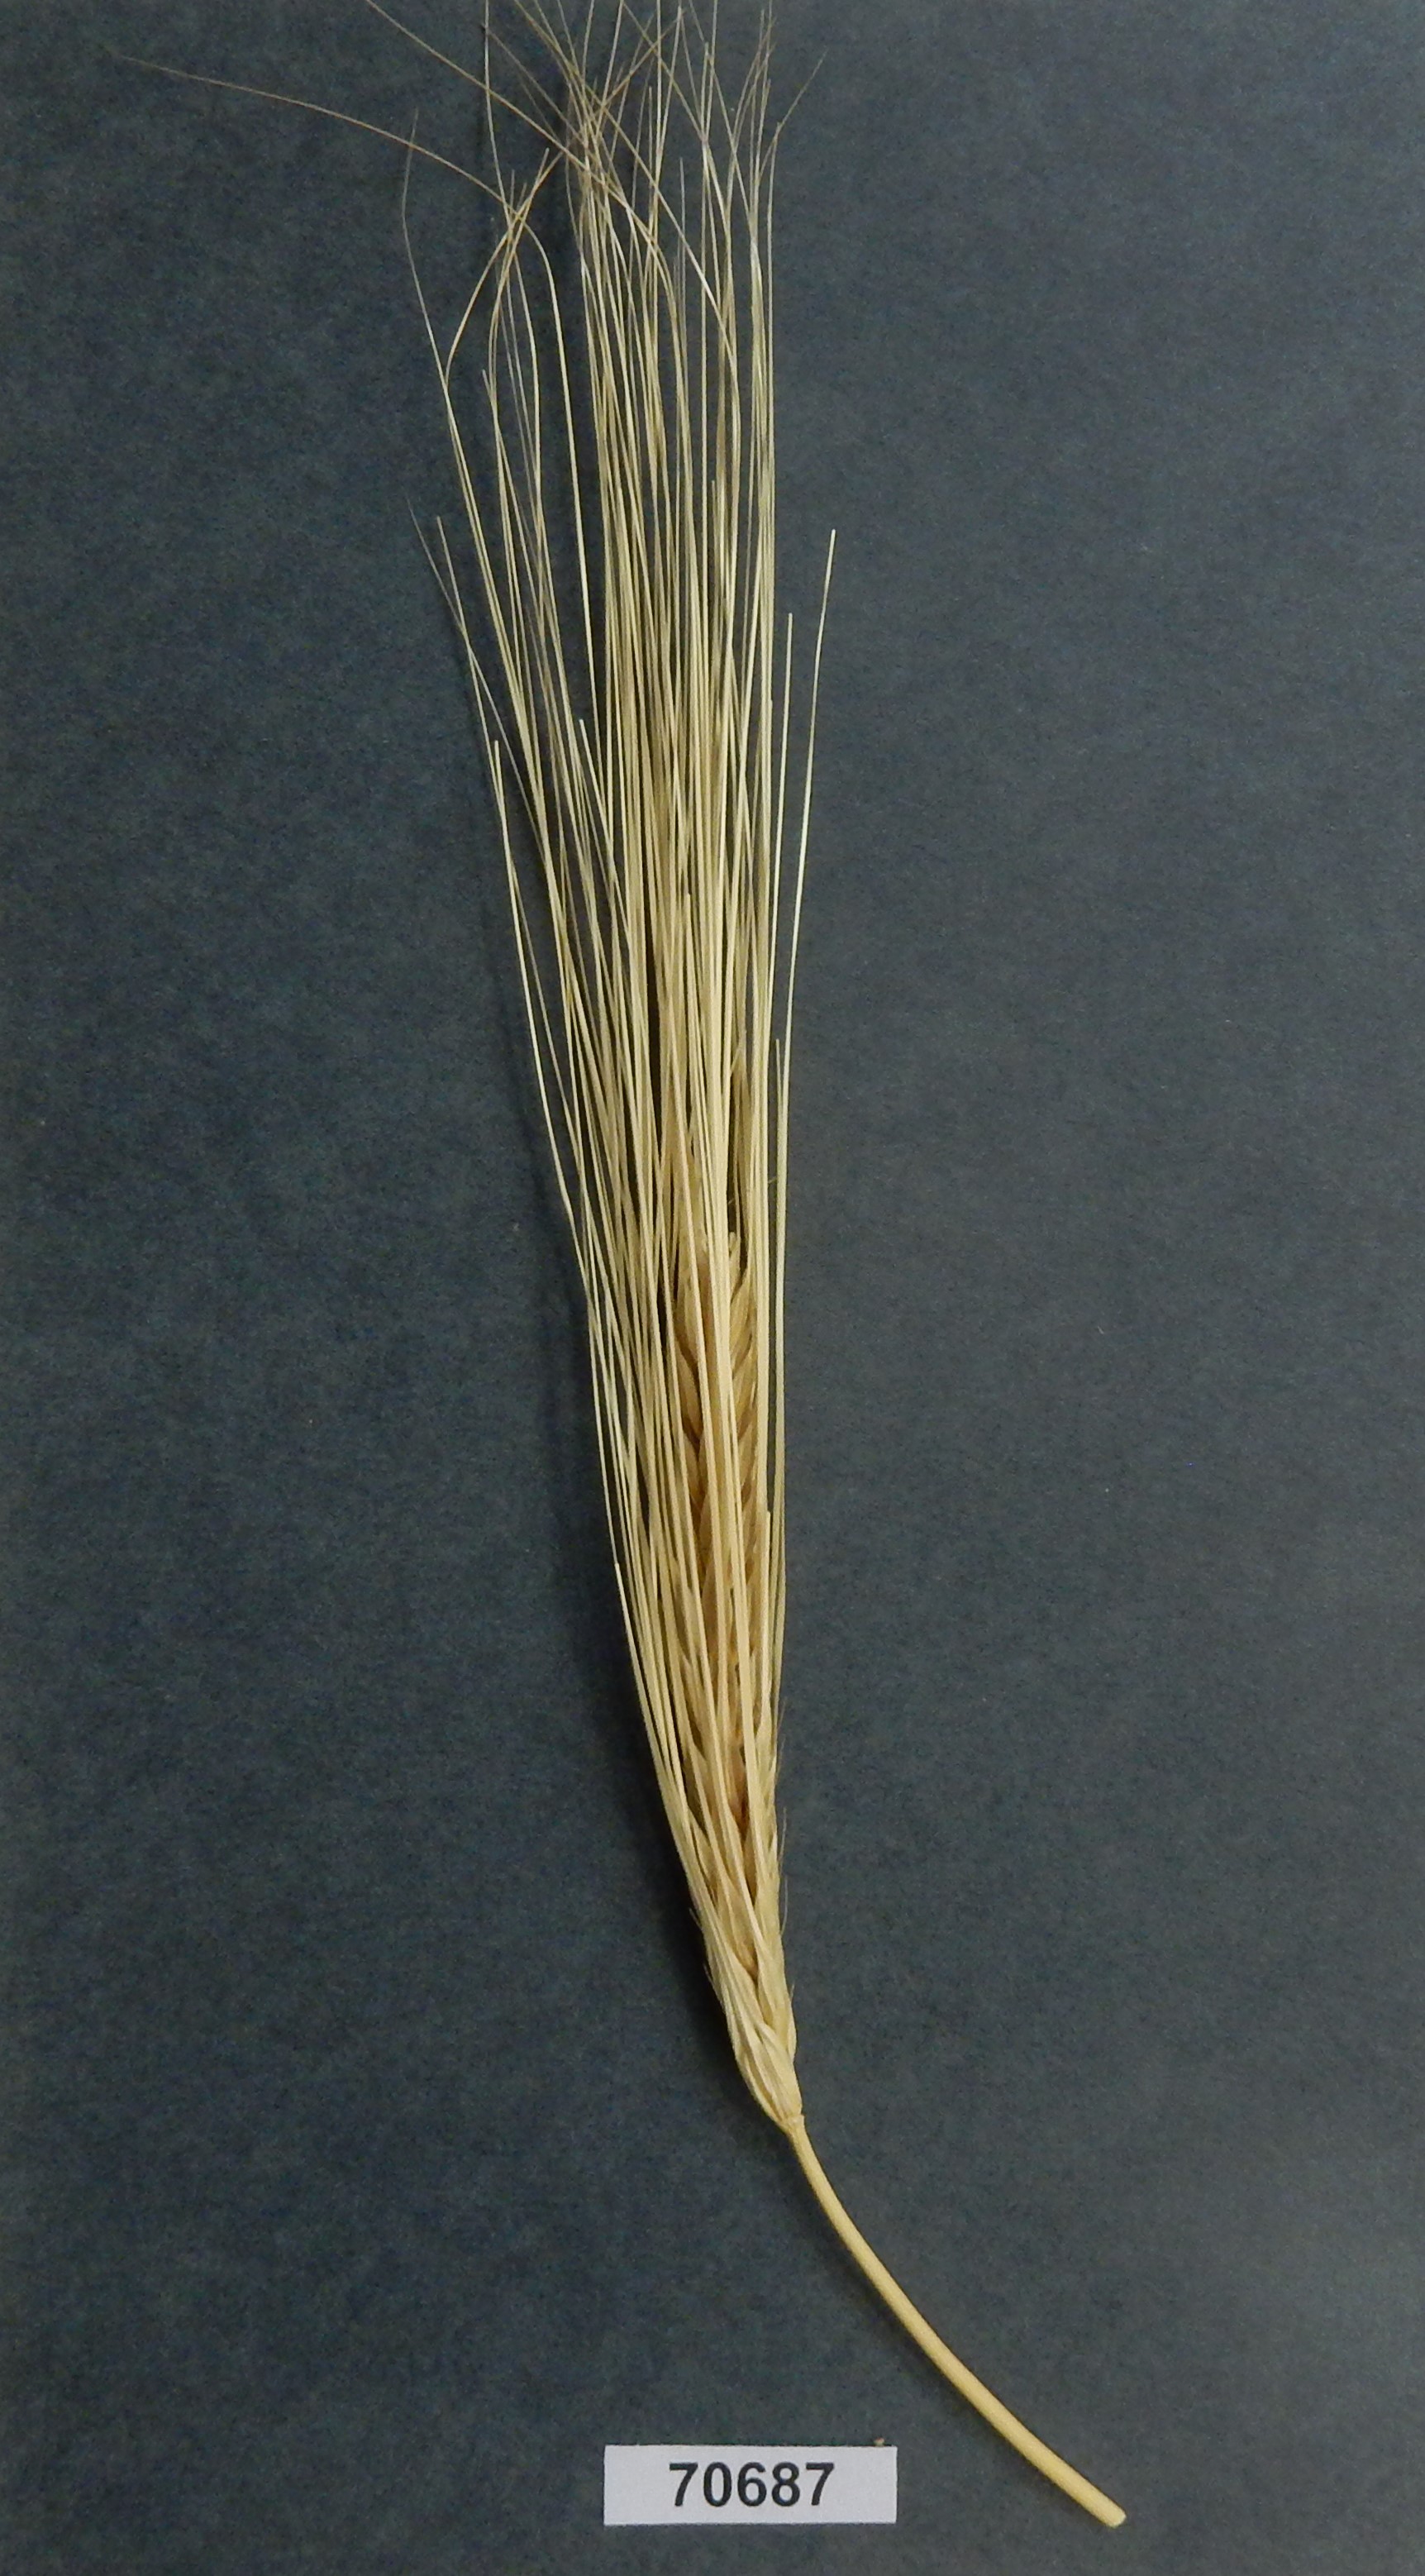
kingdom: Plantae
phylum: Tracheophyta
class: Liliopsida
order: Poales
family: Poaceae
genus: Hordeum
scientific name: Hordeum vulgare
